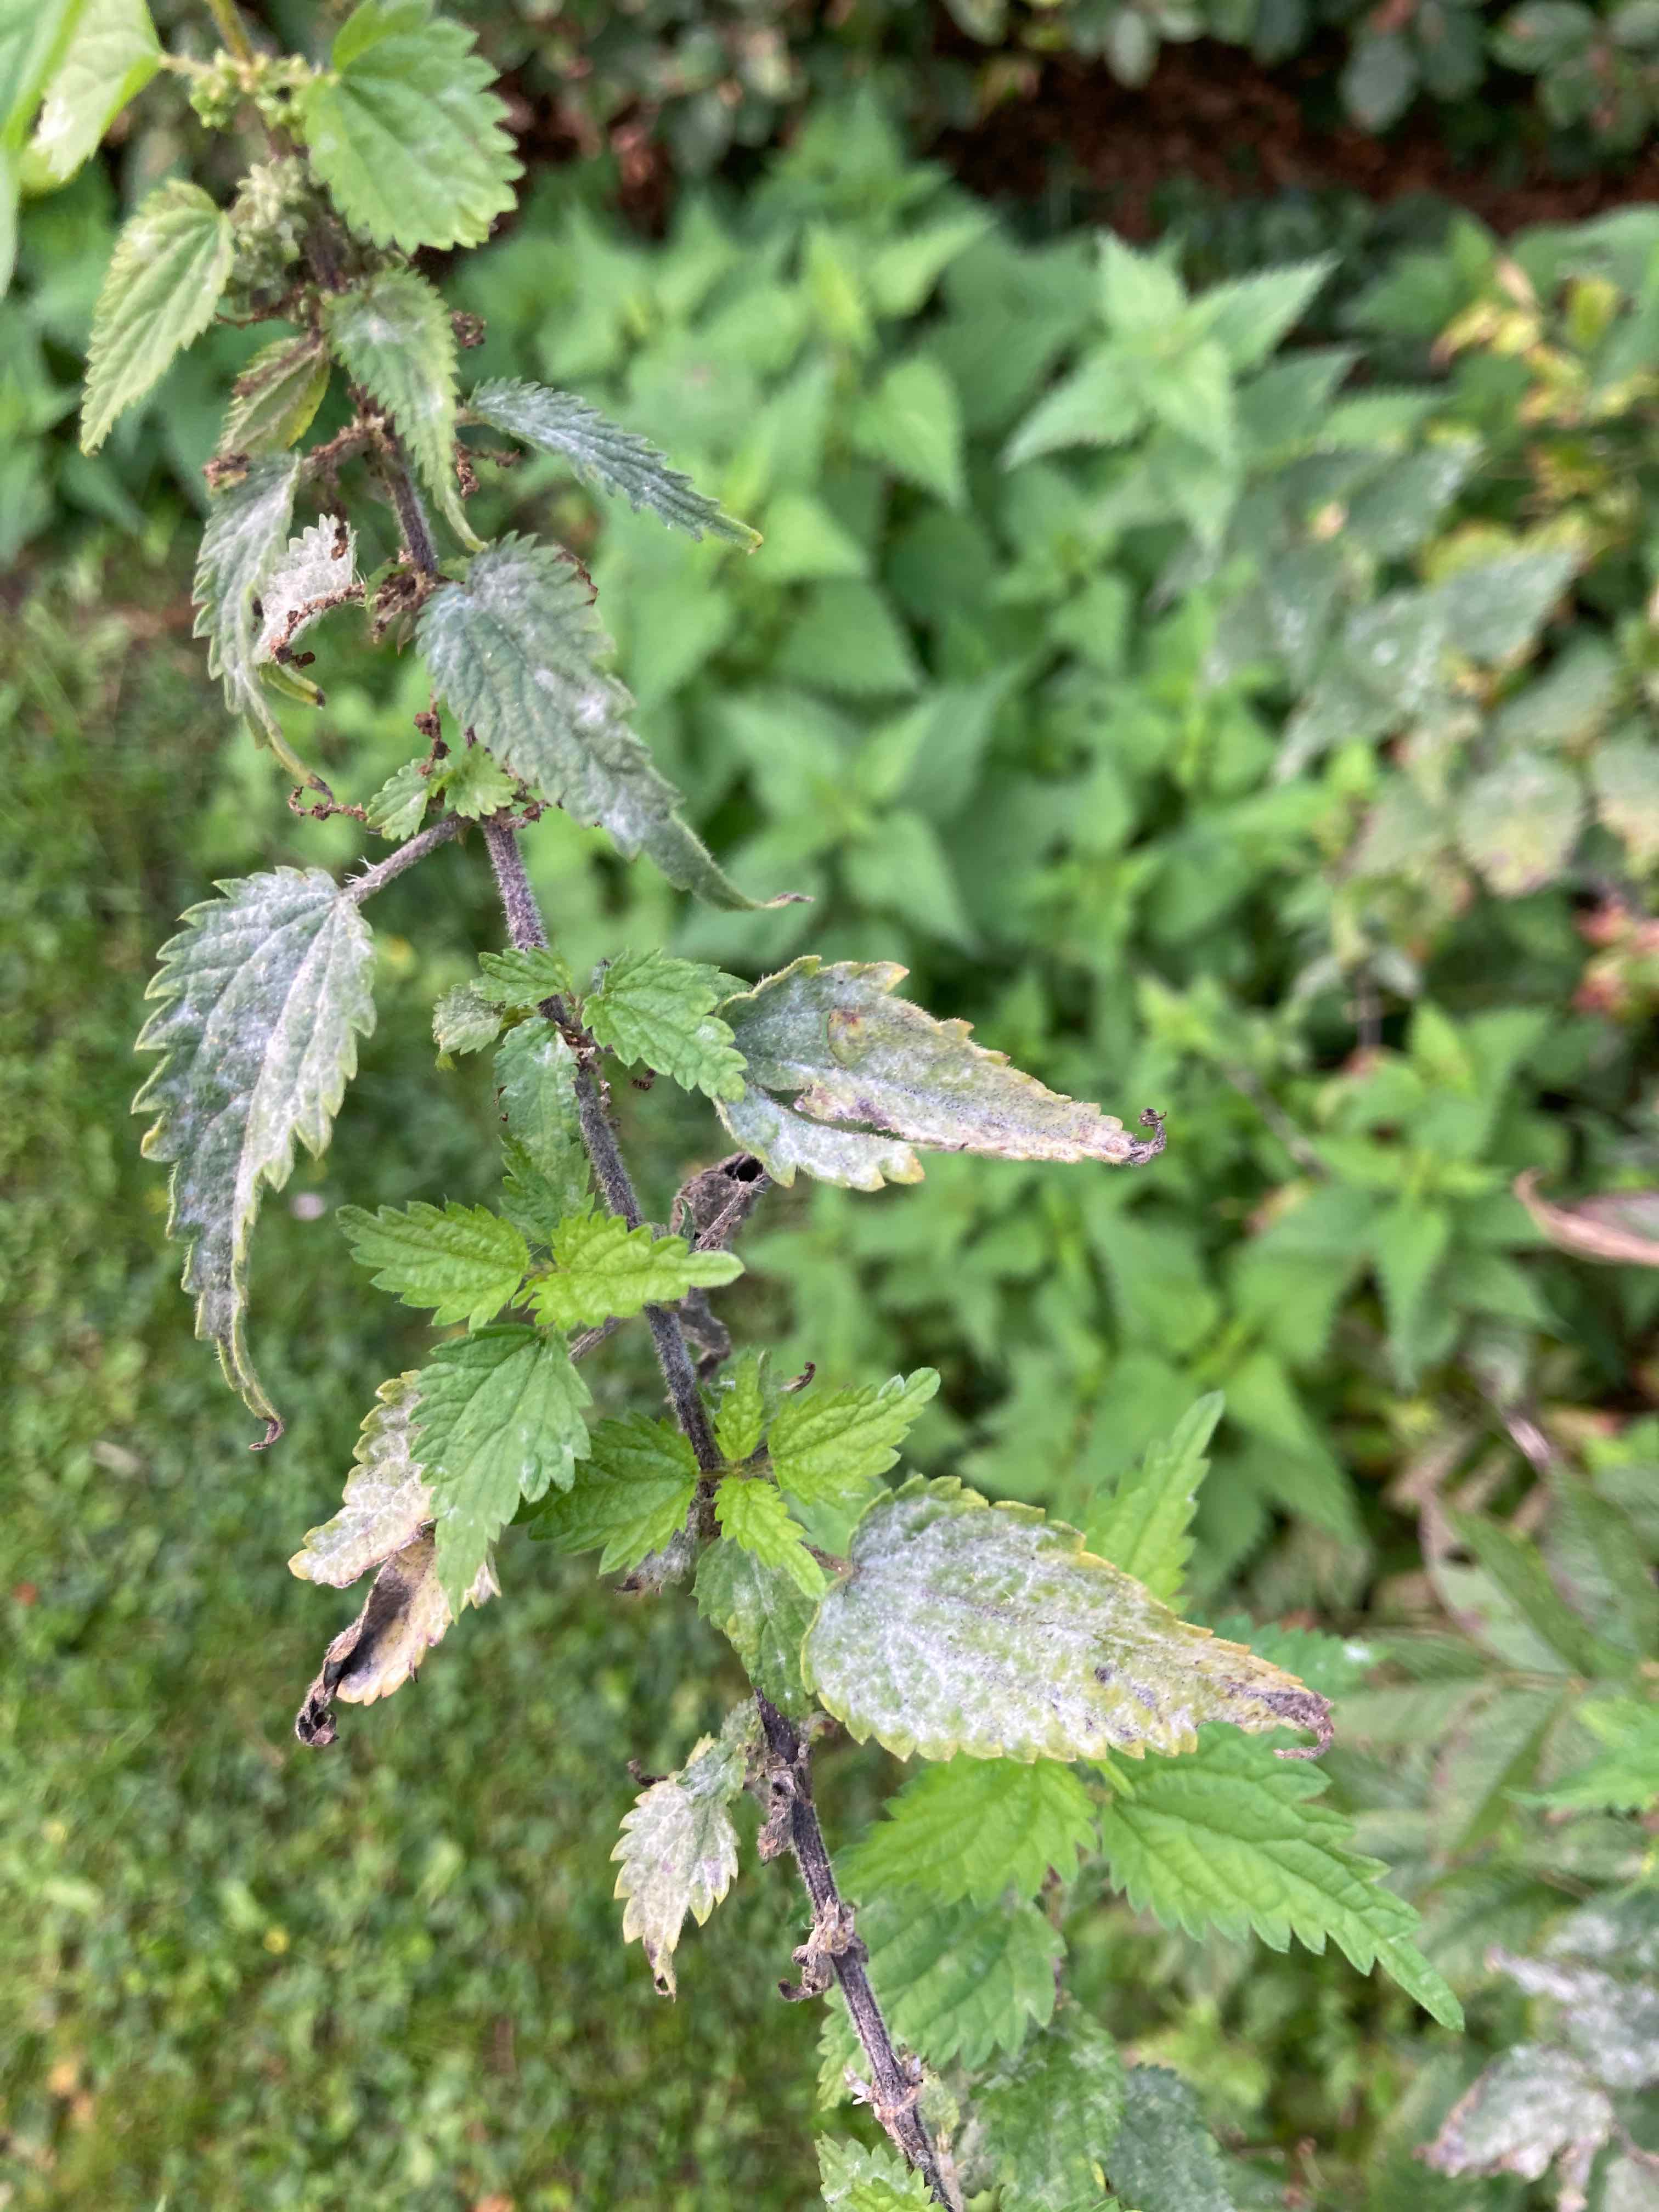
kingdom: Fungi
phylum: Ascomycota
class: Leotiomycetes
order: Helotiales
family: Erysiphaceae
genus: Erysiphe
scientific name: Erysiphe urticae
